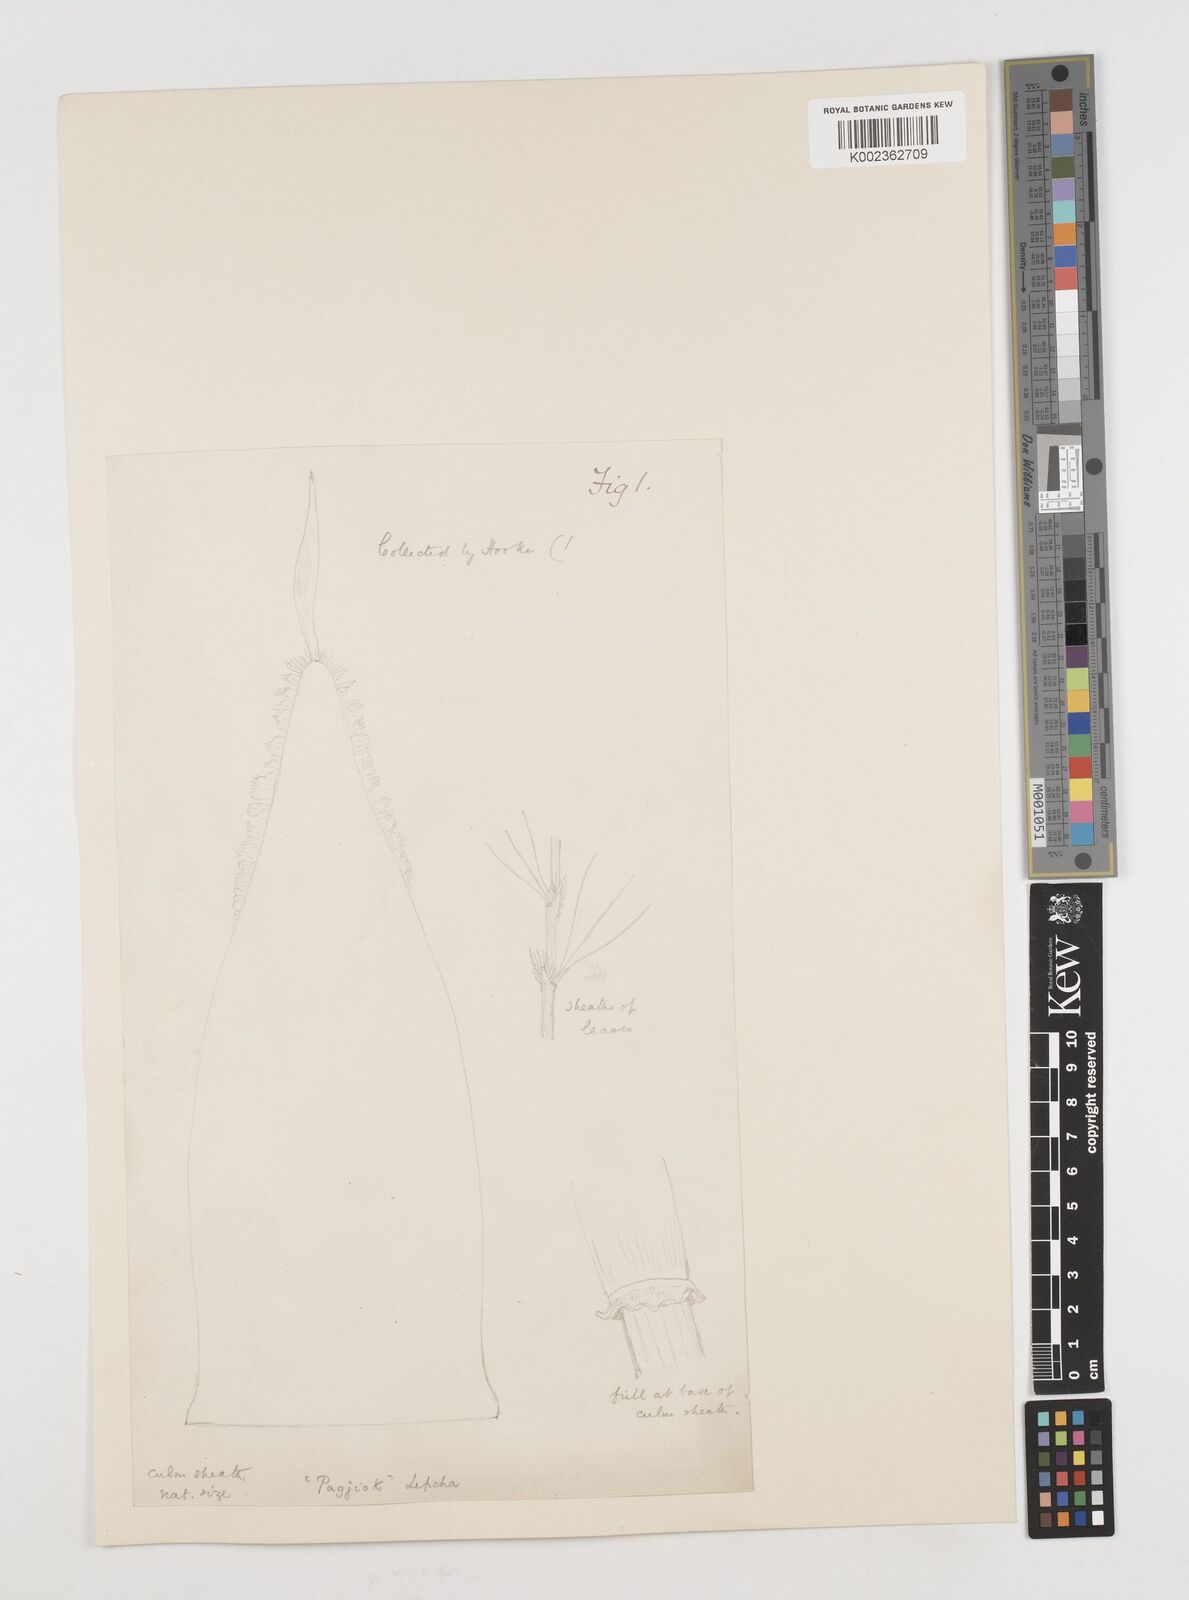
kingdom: Plantae
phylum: Tracheophyta
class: Liliopsida
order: Poales
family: Poaceae
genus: Ampelocalamus
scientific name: Ampelocalamus patellaris
